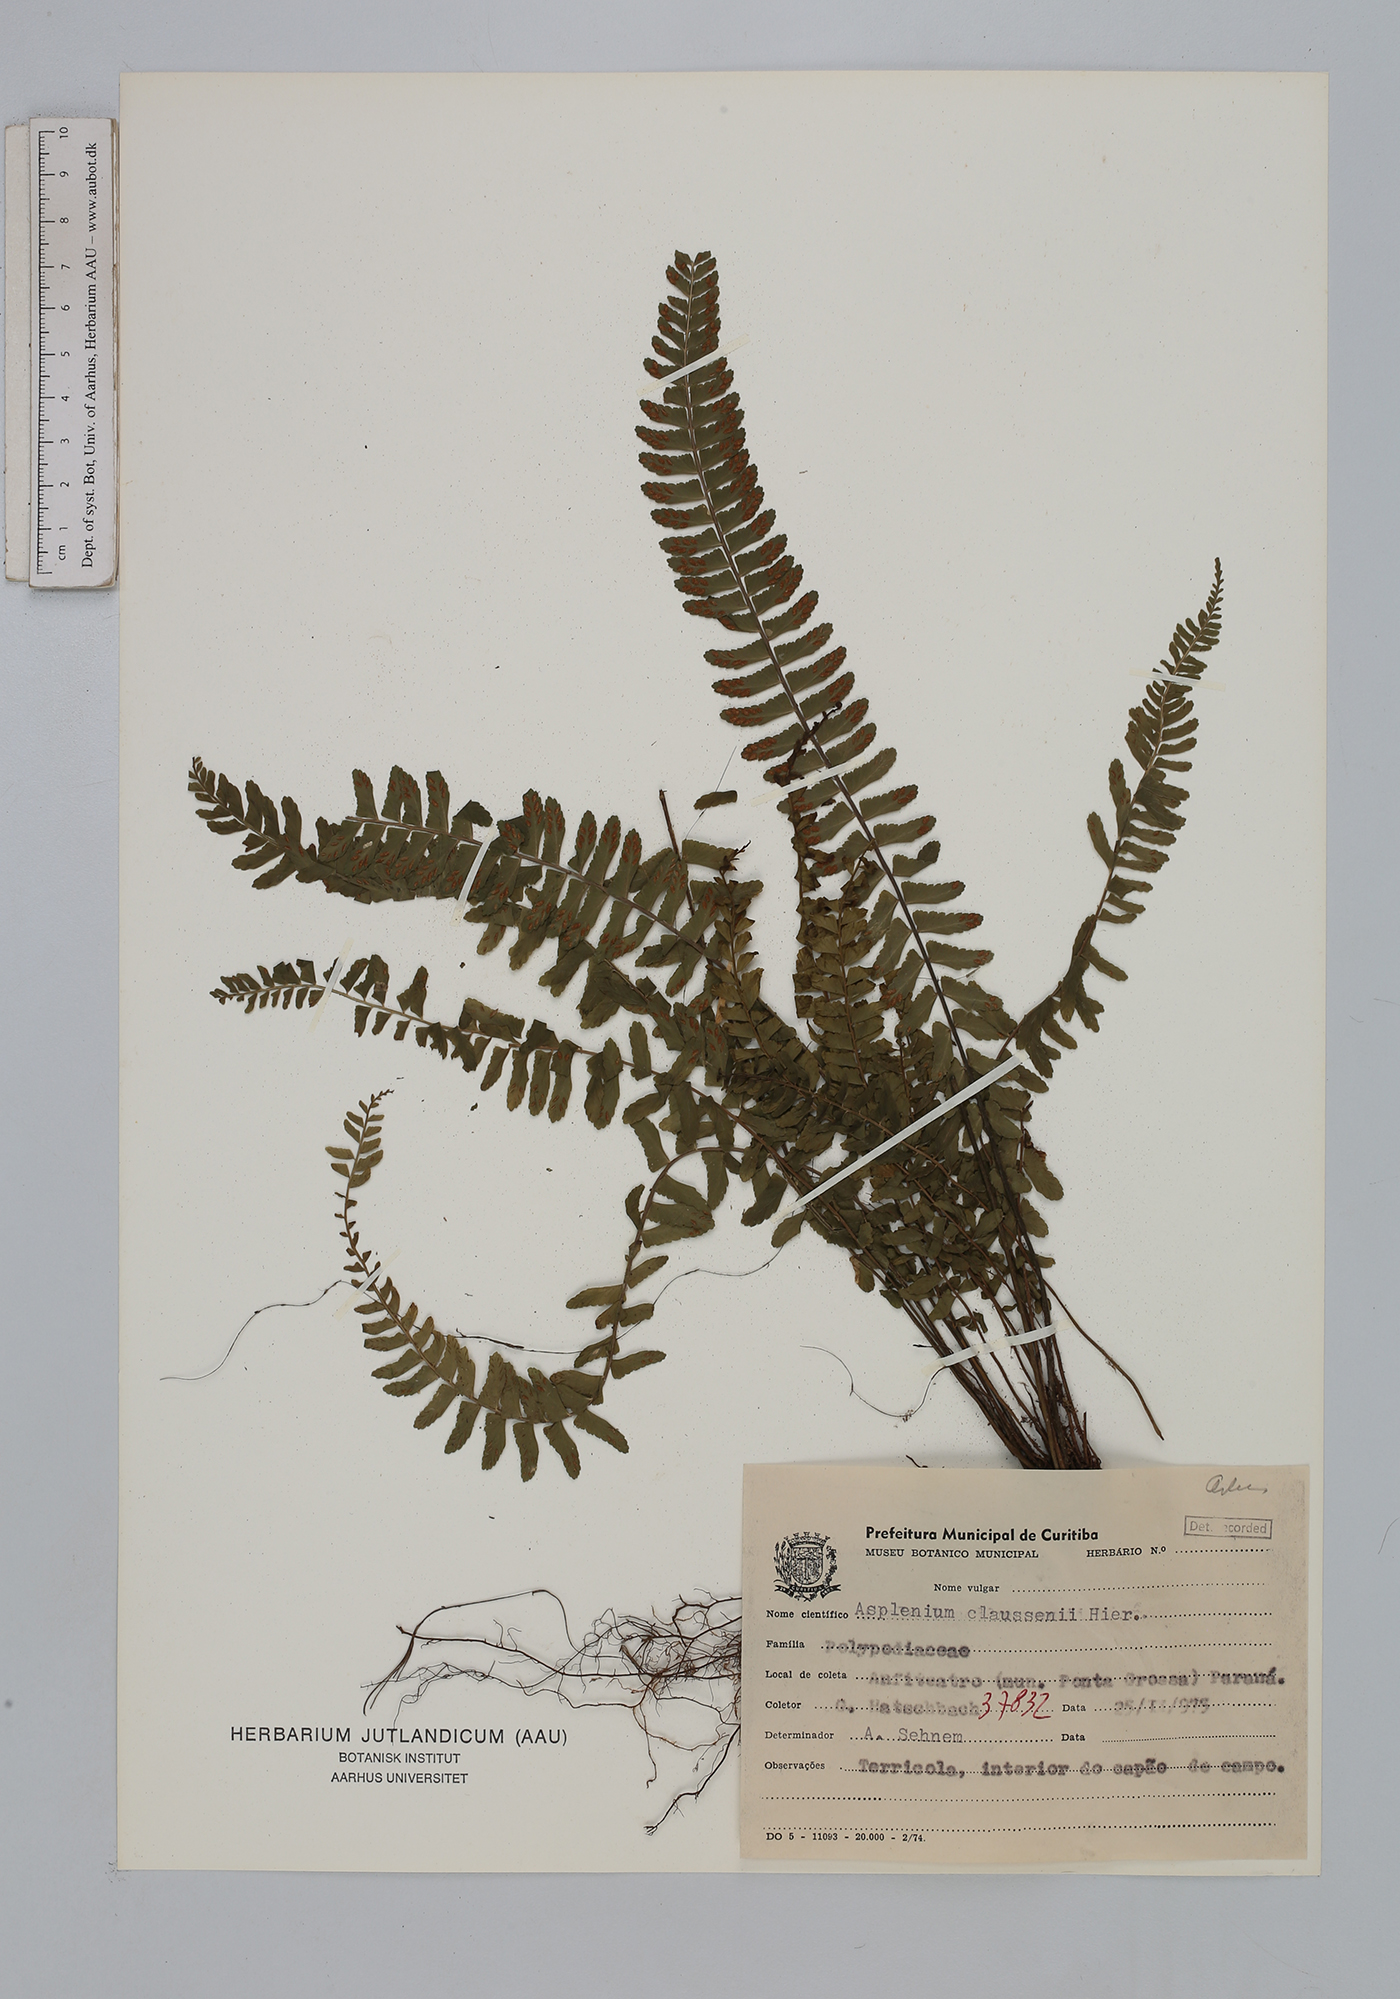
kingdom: Plantae
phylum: Tracheophyta
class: Polypodiopsida
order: Polypodiales
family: Aspleniaceae
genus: Asplenium
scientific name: Asplenium claussenii
